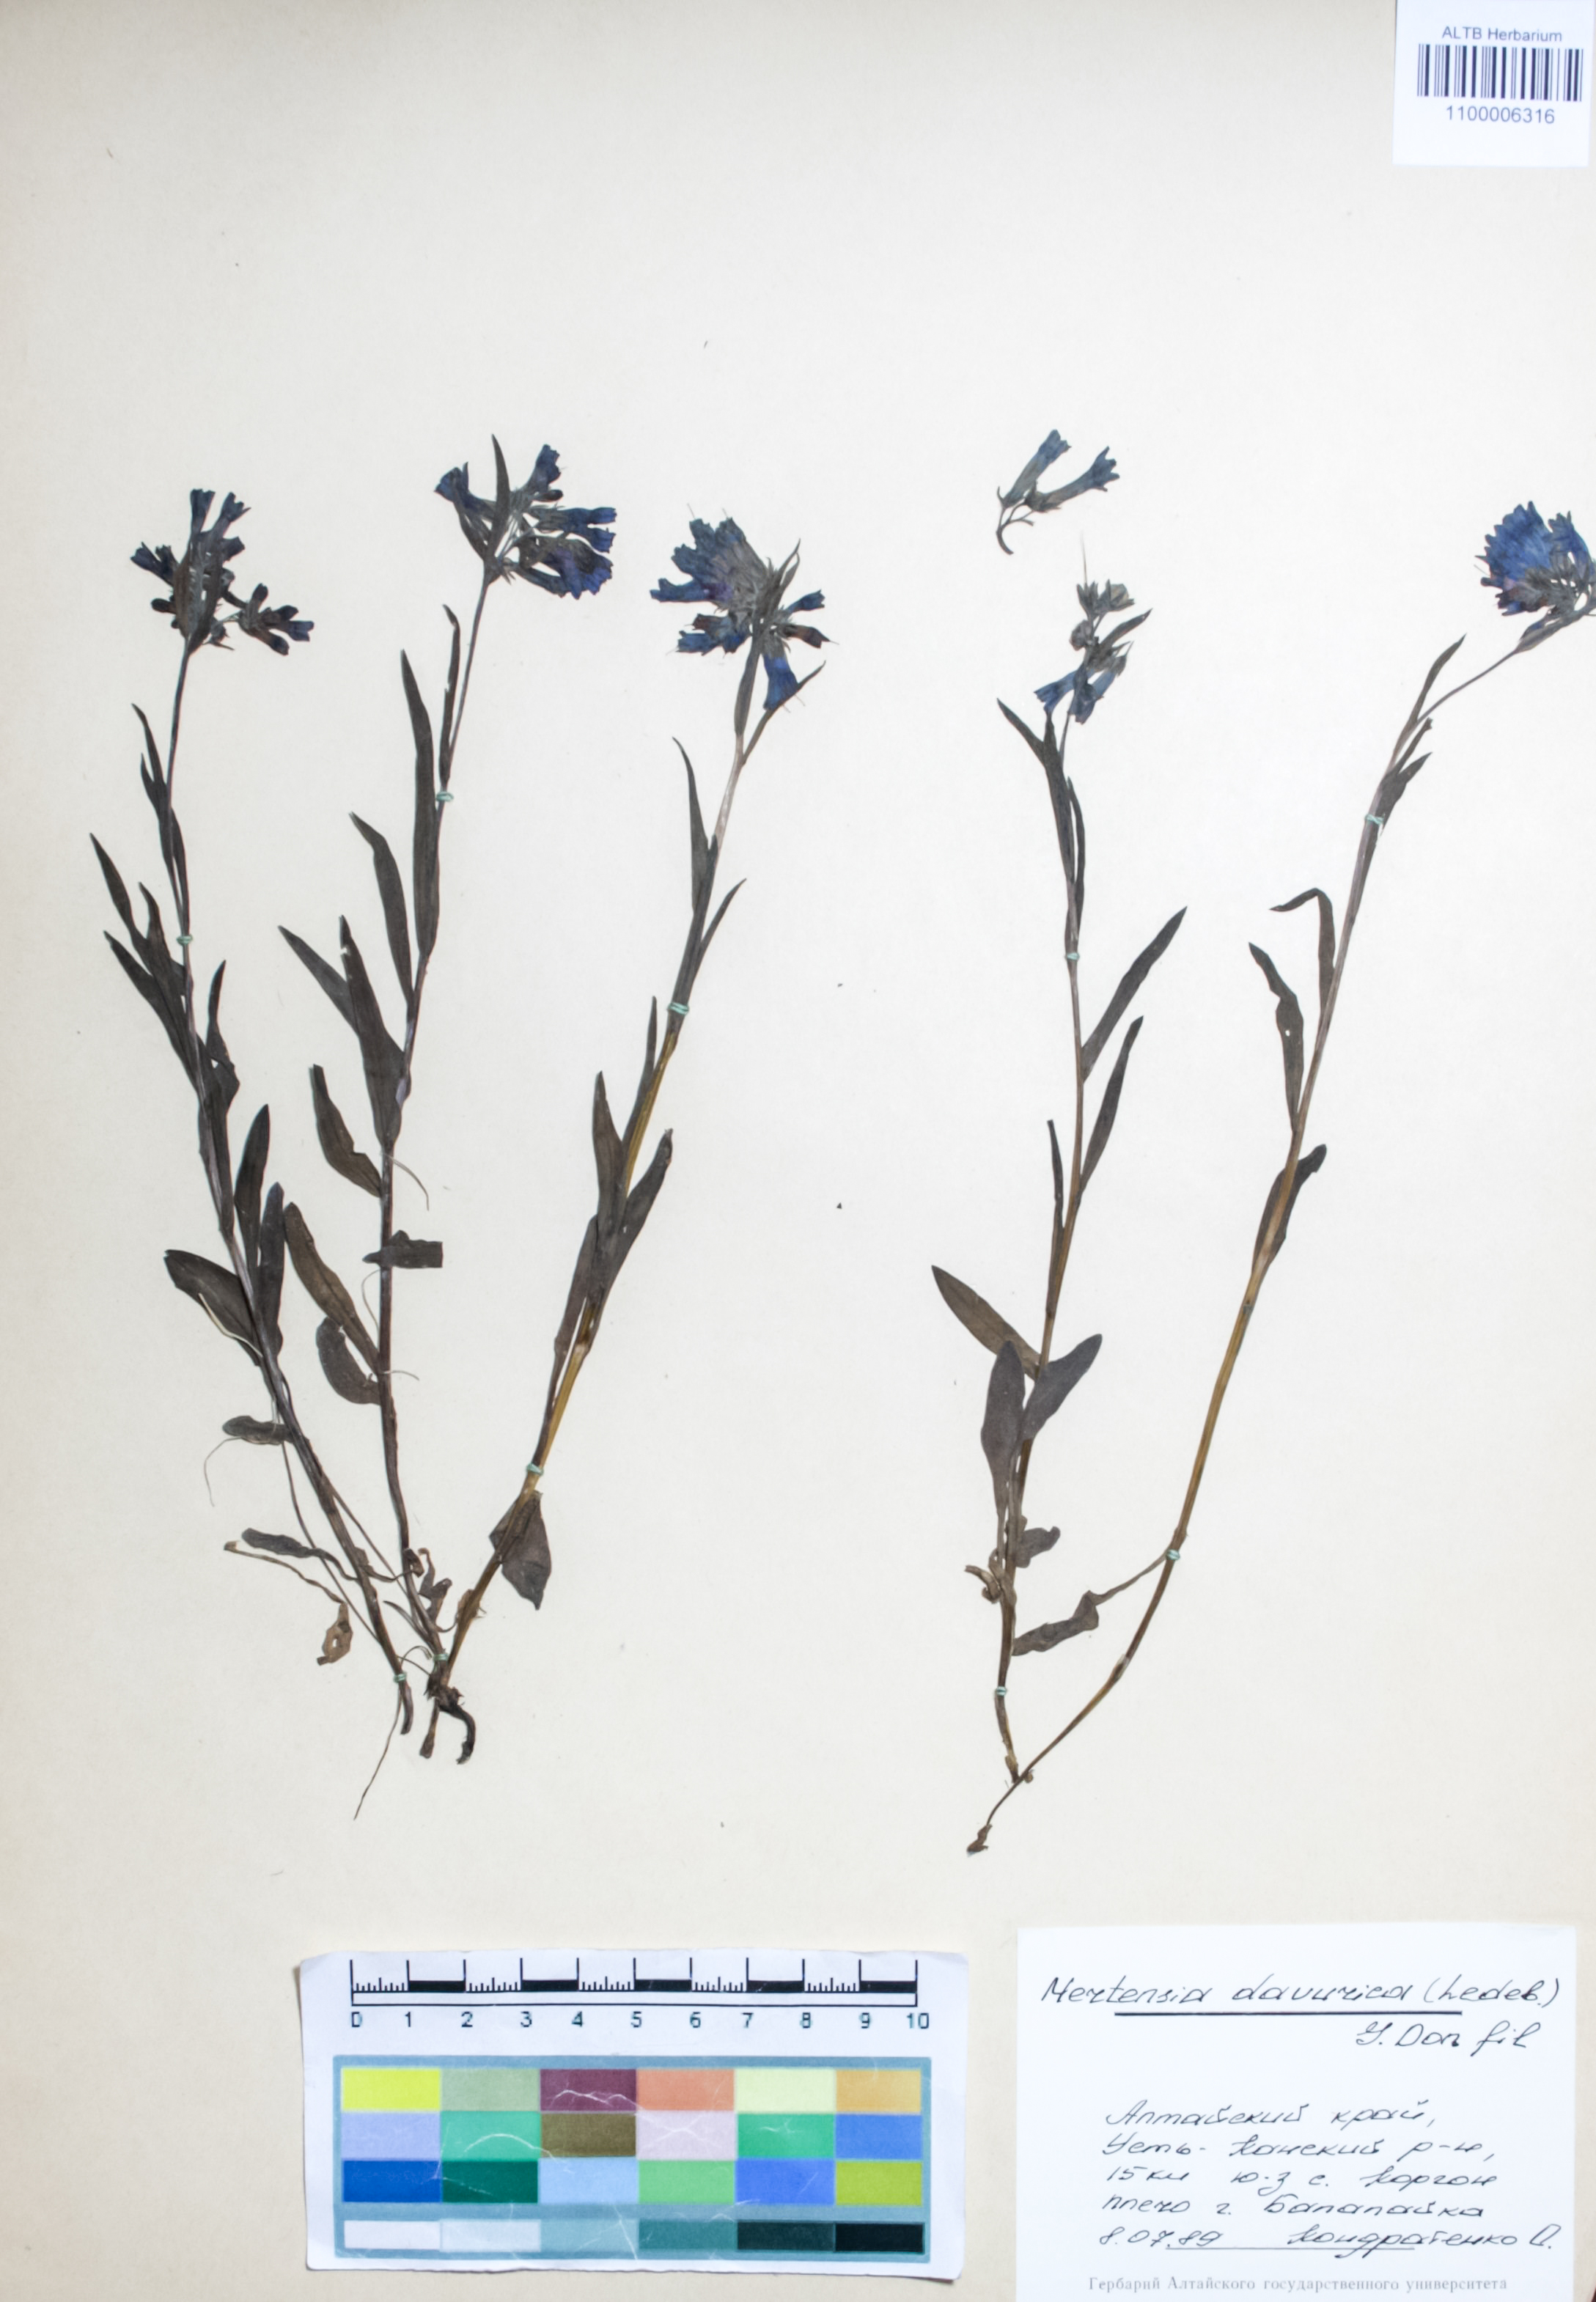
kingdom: Plantae
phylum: Tracheophyta
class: Magnoliopsida
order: Boraginales
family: Boraginaceae
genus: Mertensia
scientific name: Mertensia davurica
